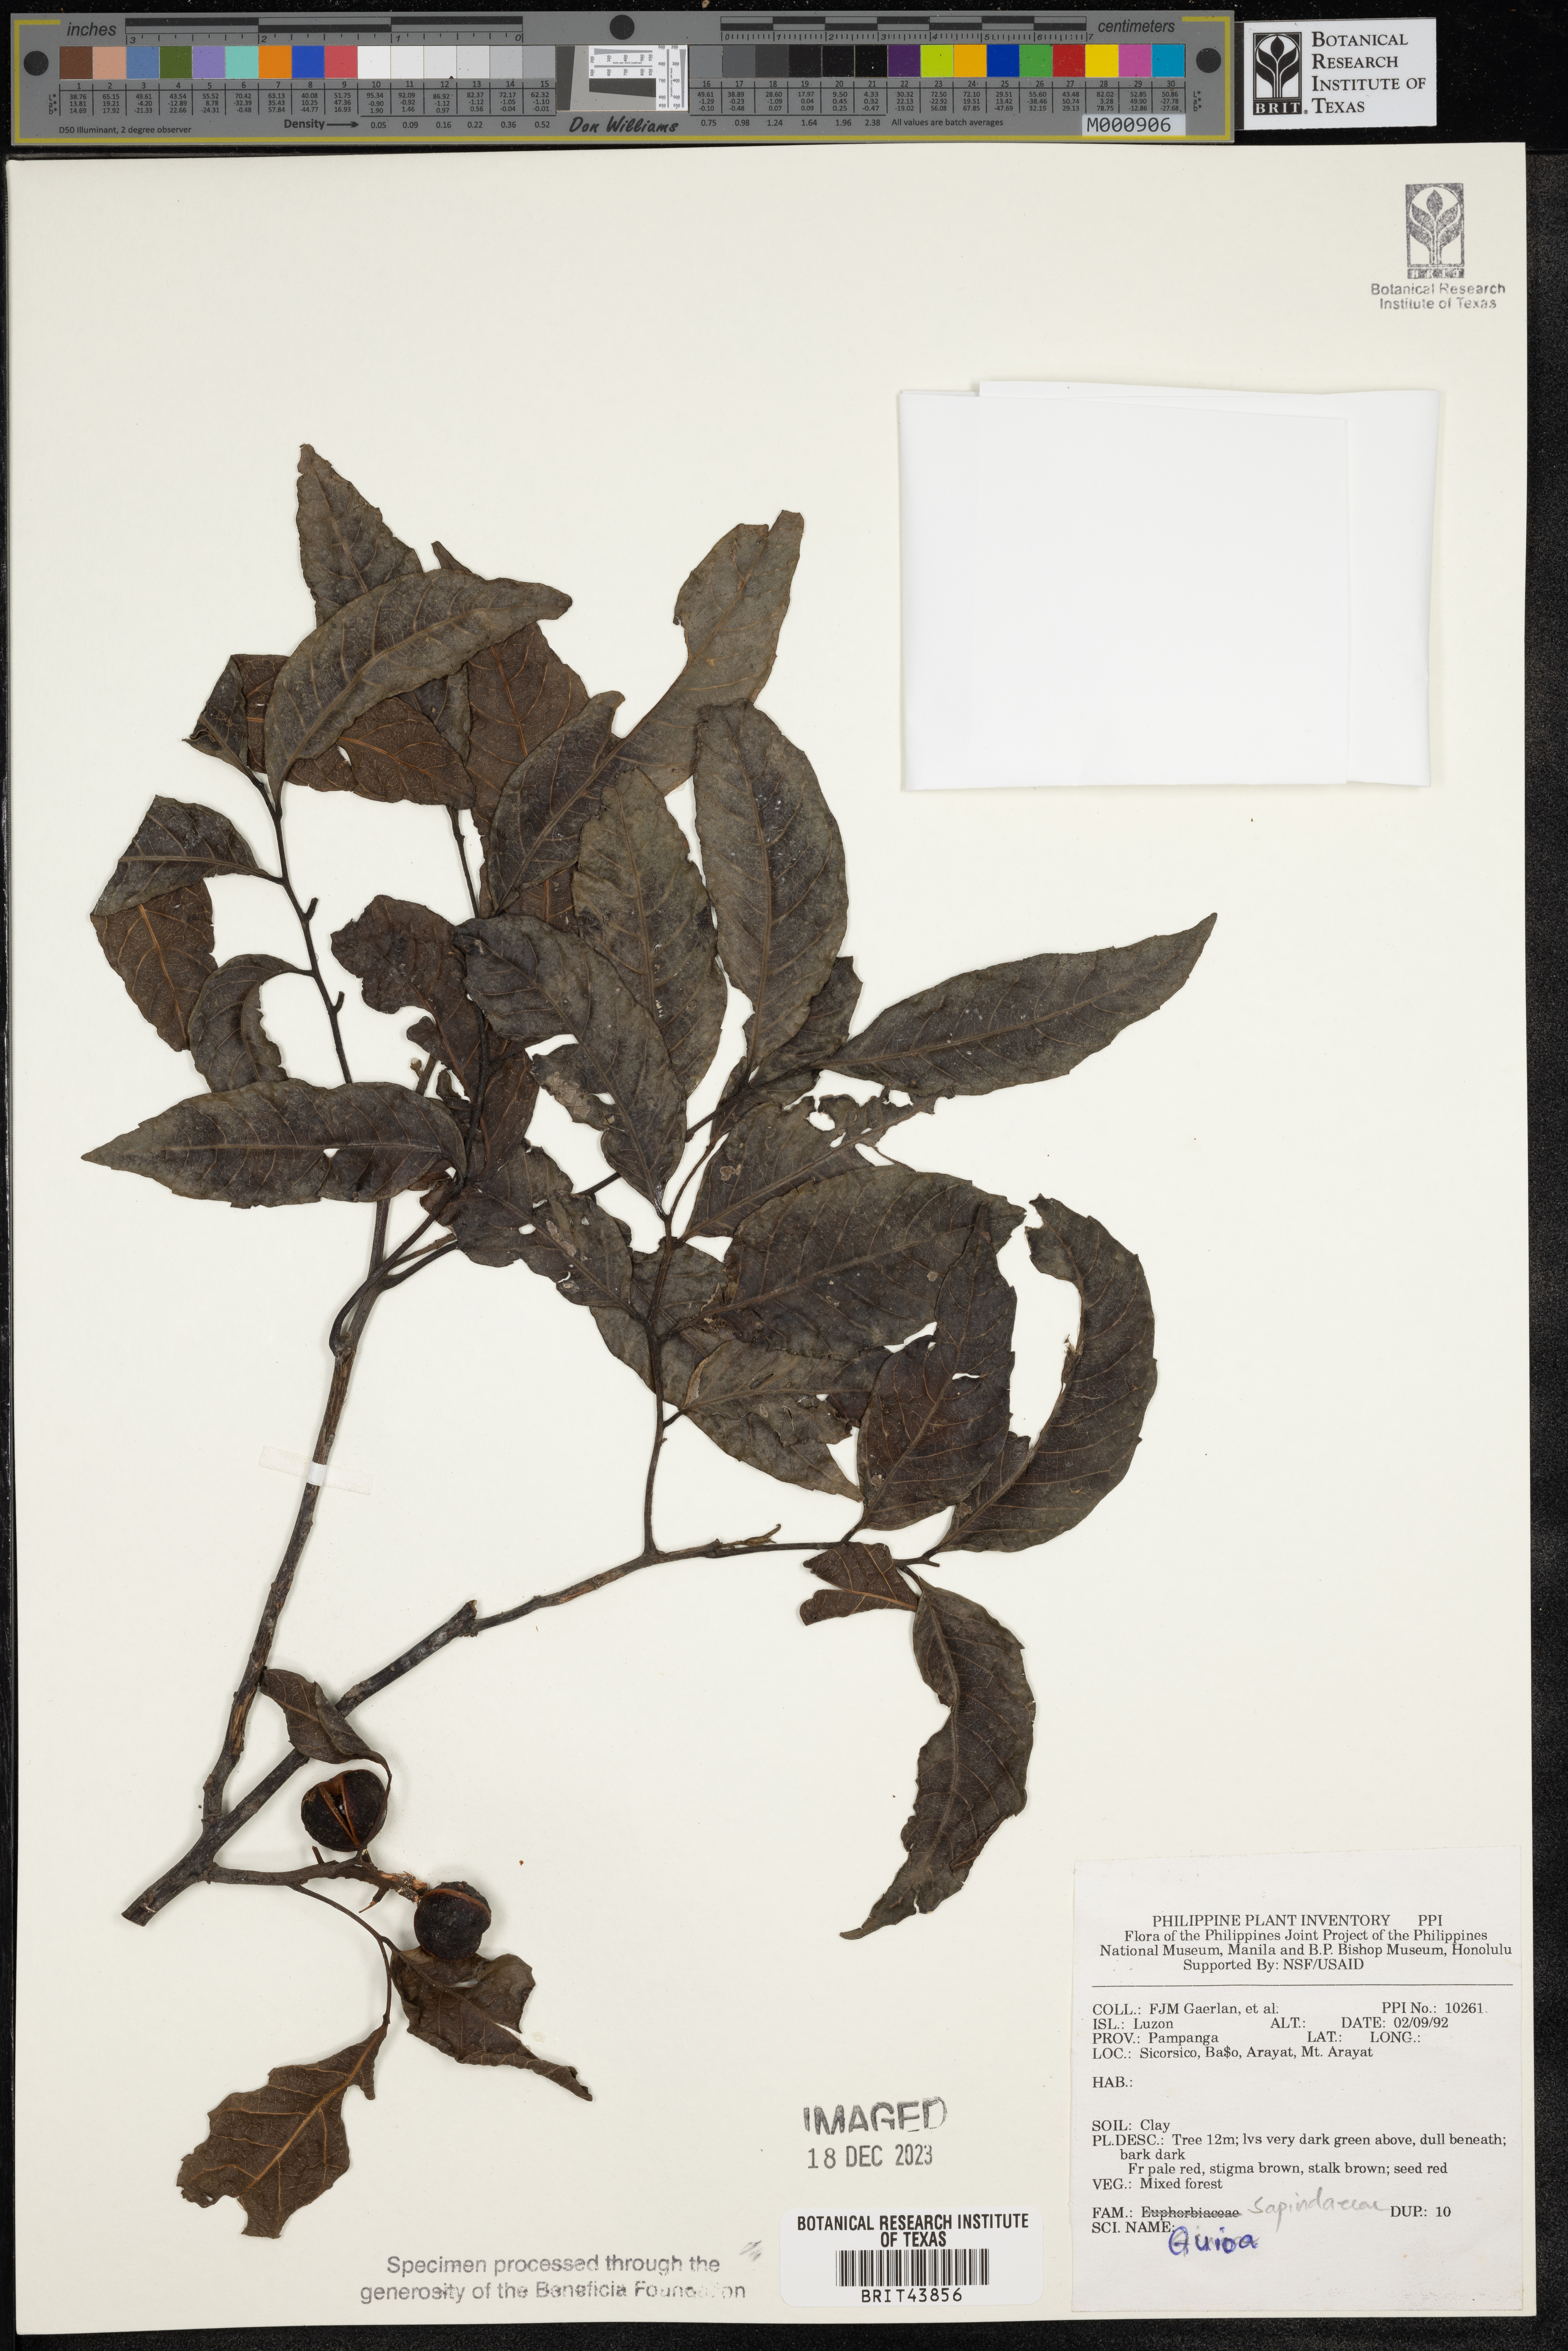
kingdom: Plantae
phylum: Tracheophyta
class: Magnoliopsida
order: Sapindales
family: Sapindaceae
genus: Guioa
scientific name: Guioa
